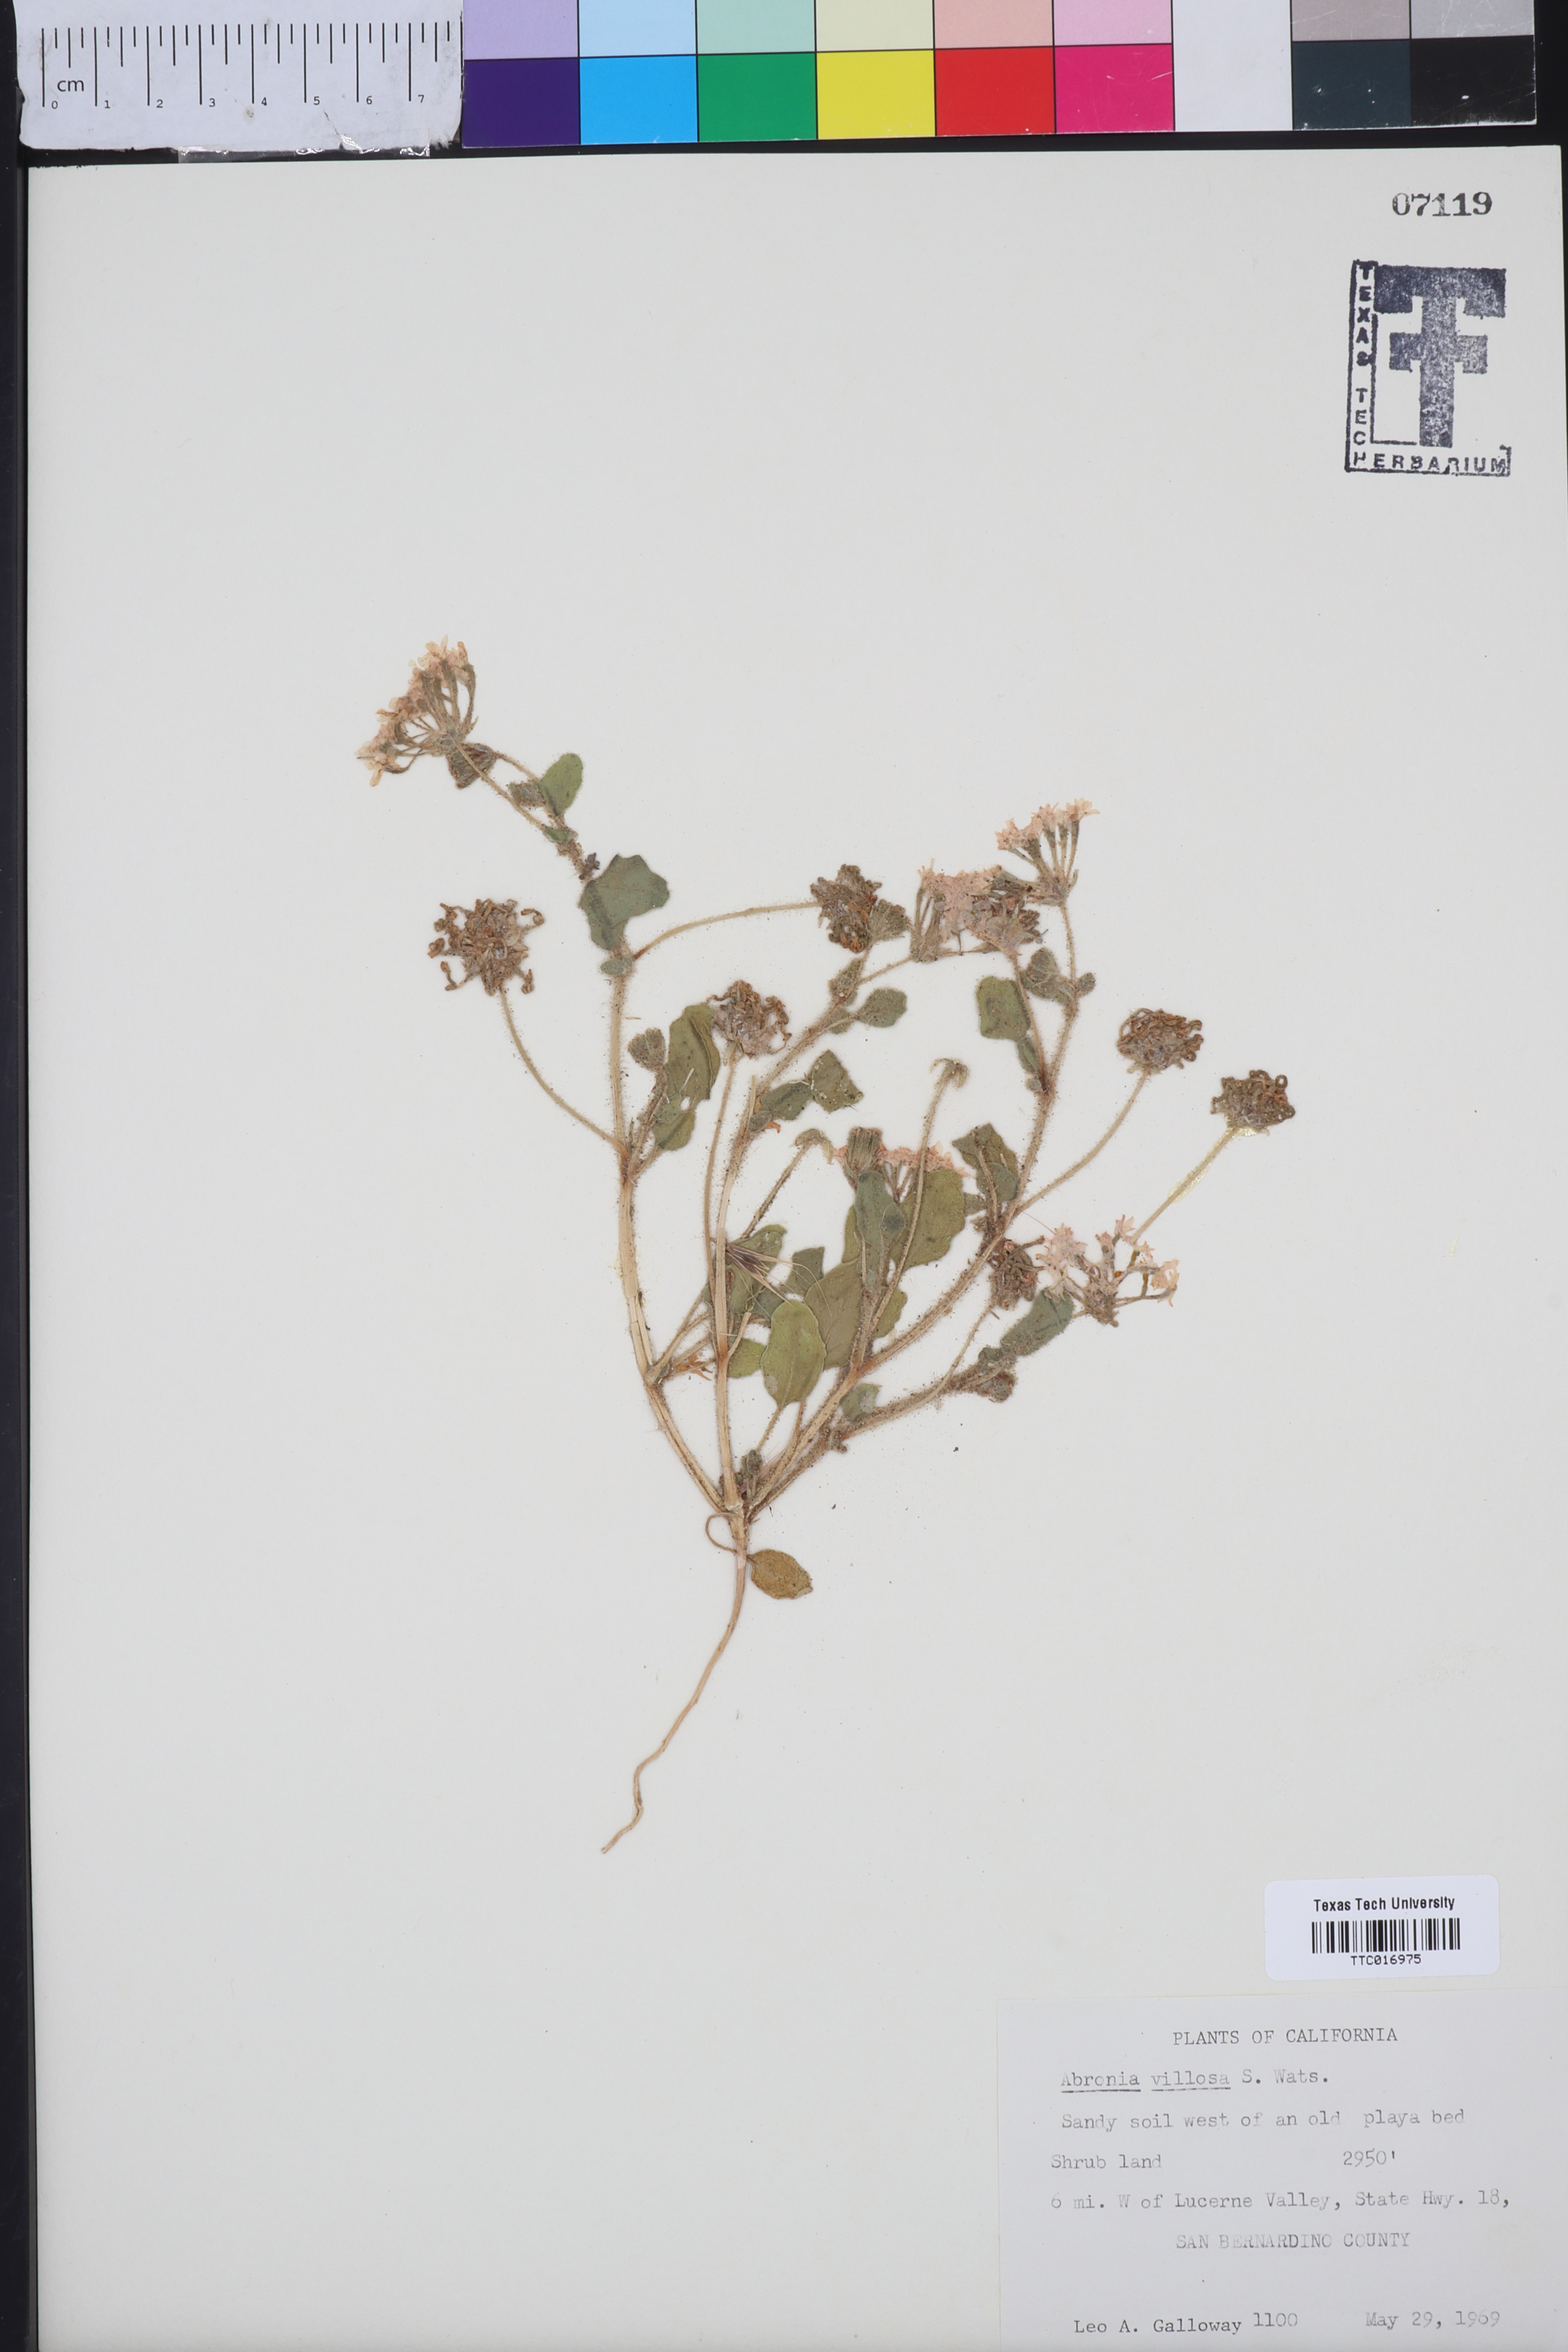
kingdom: Plantae
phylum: Tracheophyta
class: Magnoliopsida
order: Caryophyllales
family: Nyctaginaceae
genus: Abronia
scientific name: Abronia villosa
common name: Desert sand-verbena
